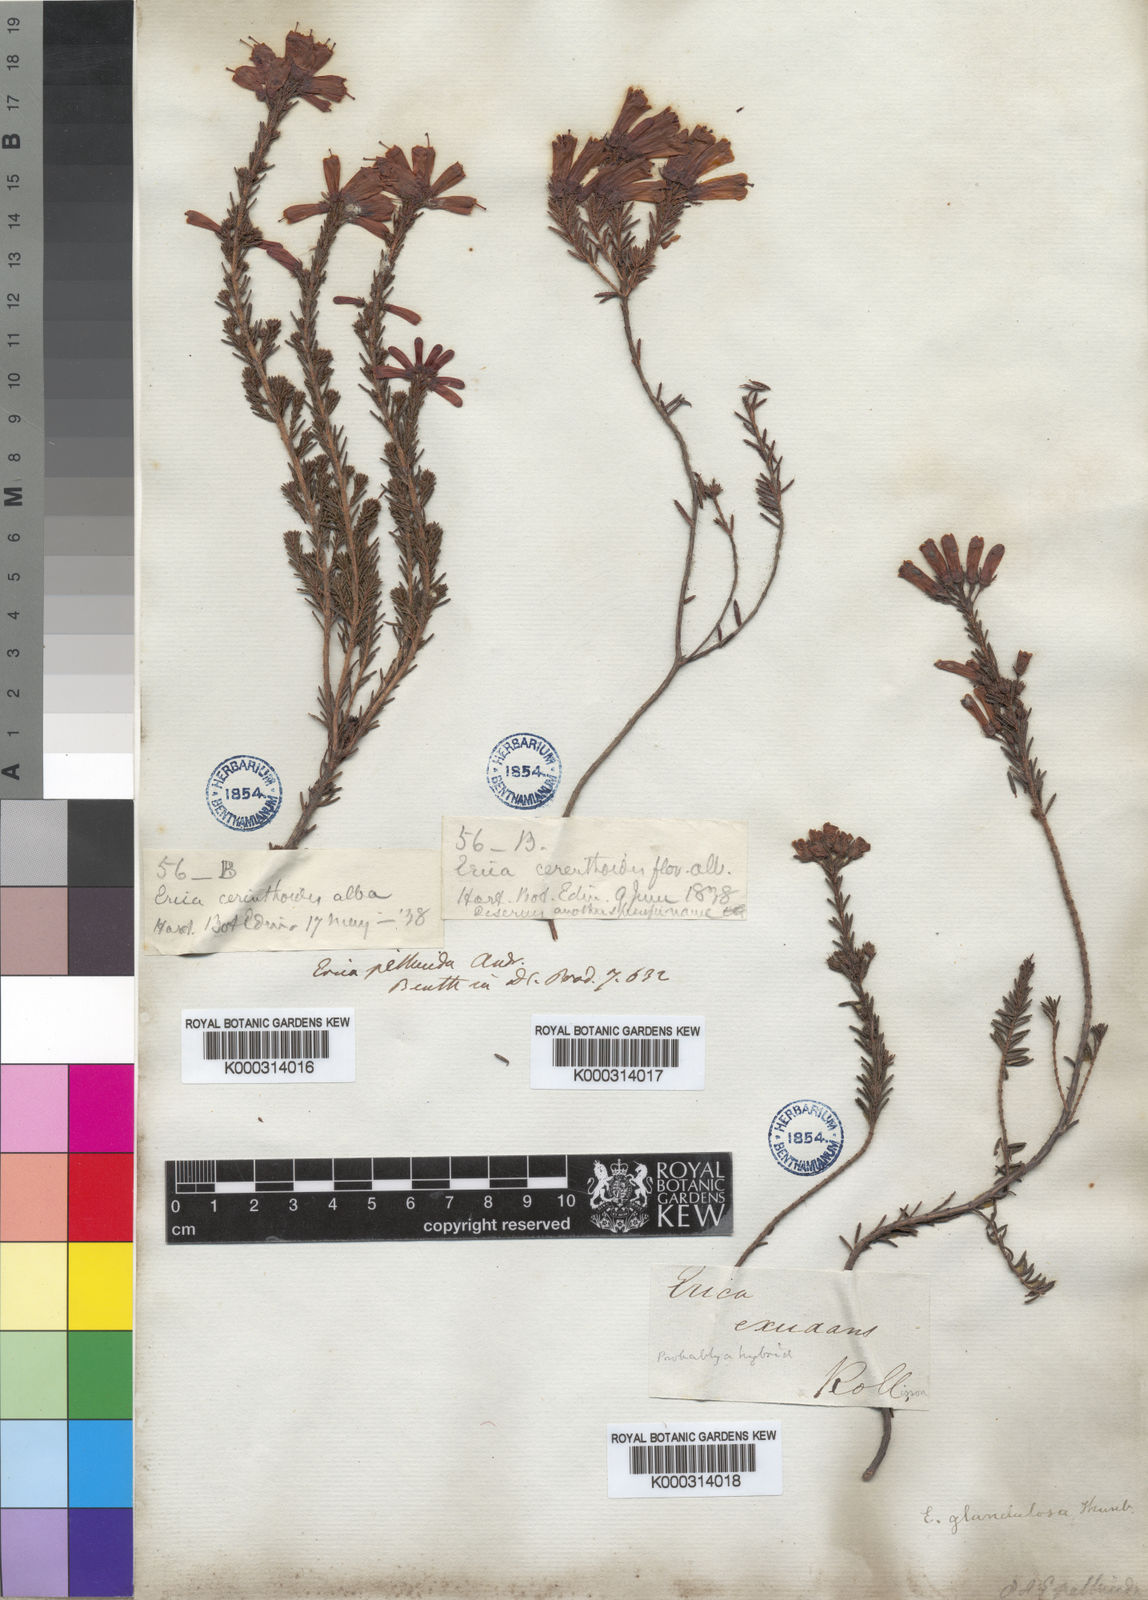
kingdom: Plantae
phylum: Tracheophyta
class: Magnoliopsida
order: Ericales
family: Ericaceae
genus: Erica
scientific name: Erica glandulosa
